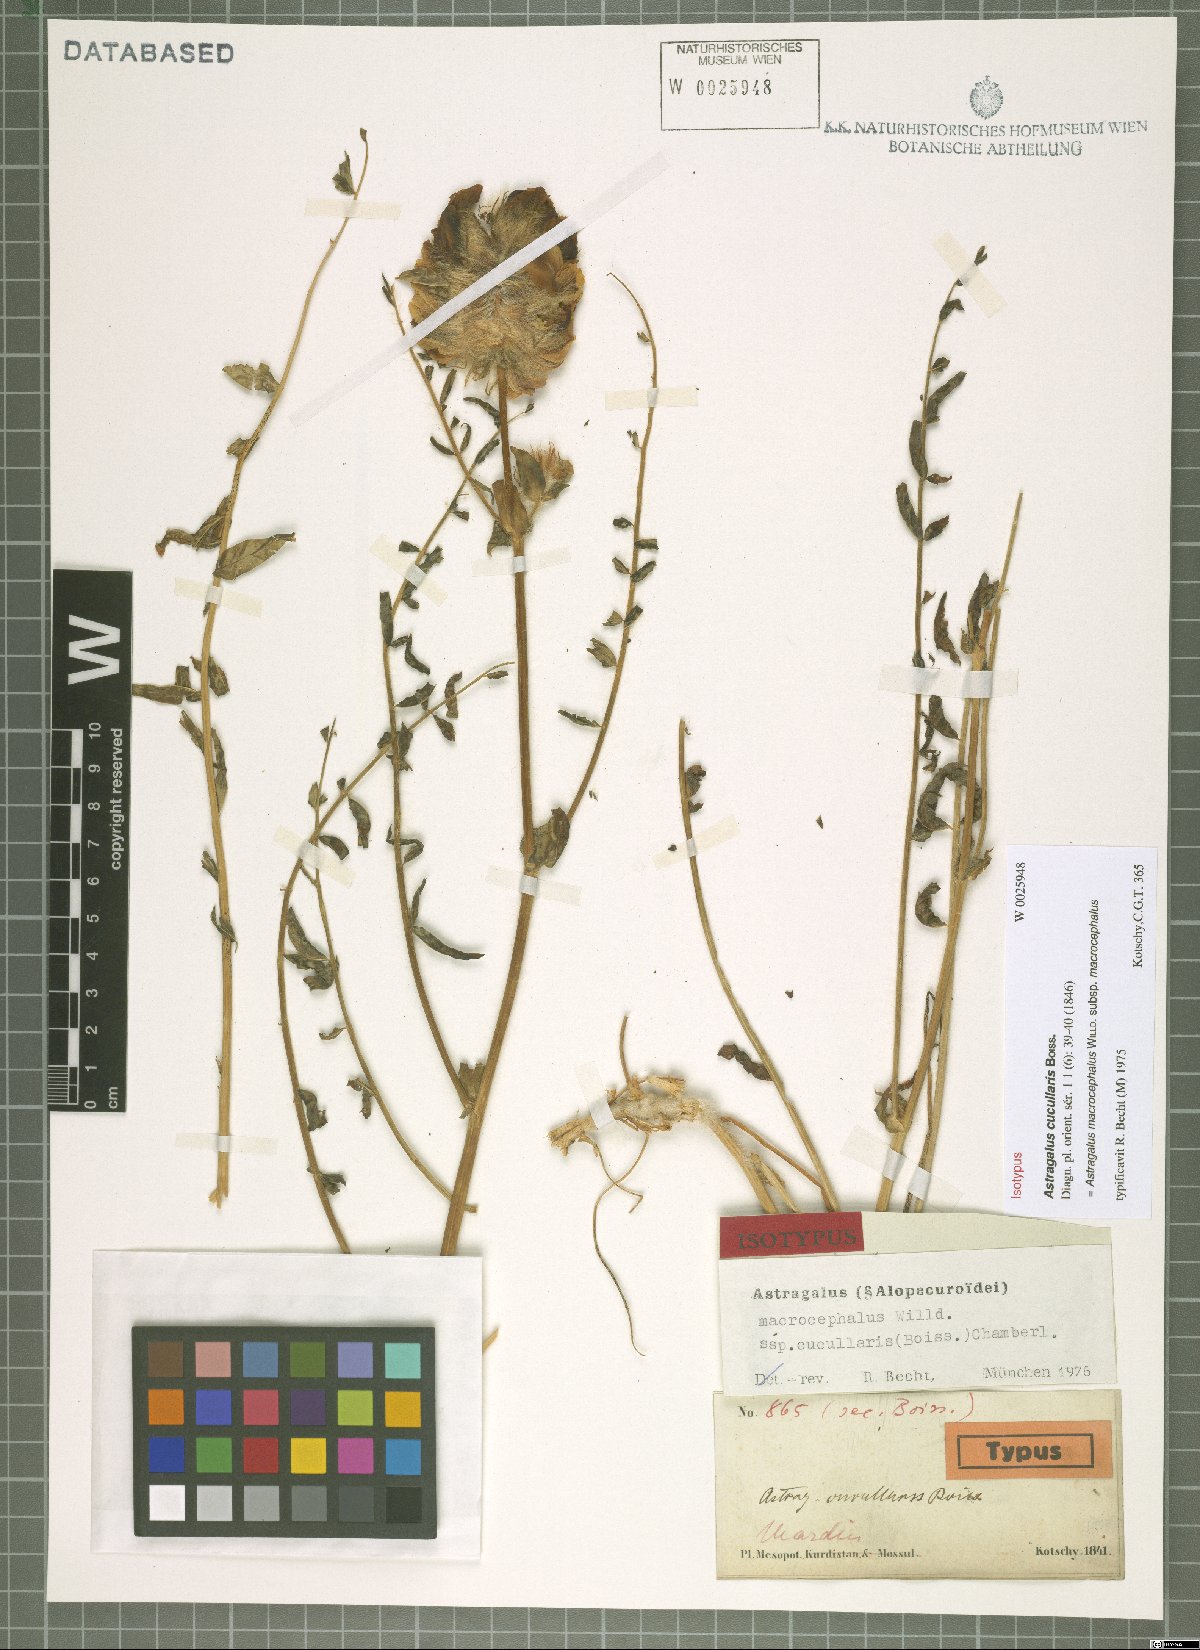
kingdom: Plantae
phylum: Tracheophyta
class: Magnoliopsida
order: Fabales
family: Fabaceae
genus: Astragalus
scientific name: Astragalus macrocephalus
